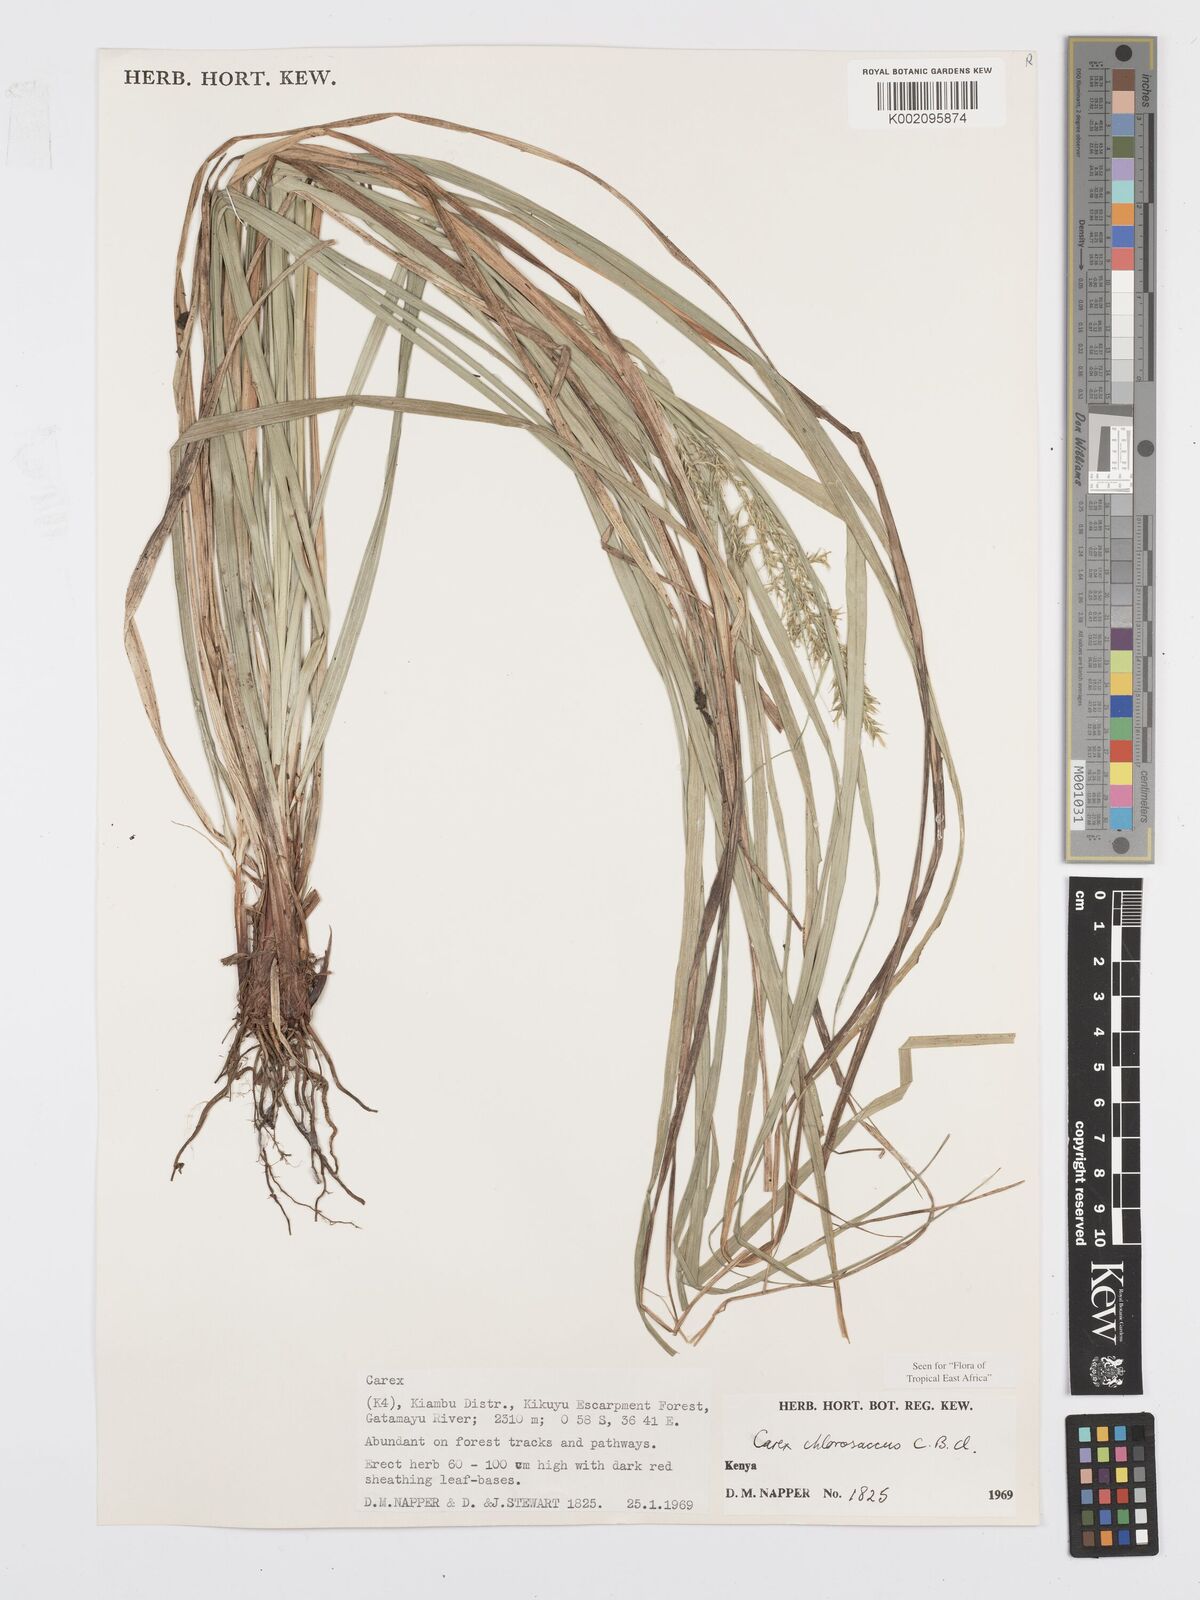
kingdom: Plantae
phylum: Tracheophyta
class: Liliopsida
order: Poales
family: Cyperaceae
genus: Carex
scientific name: Carex chlorosaccus
